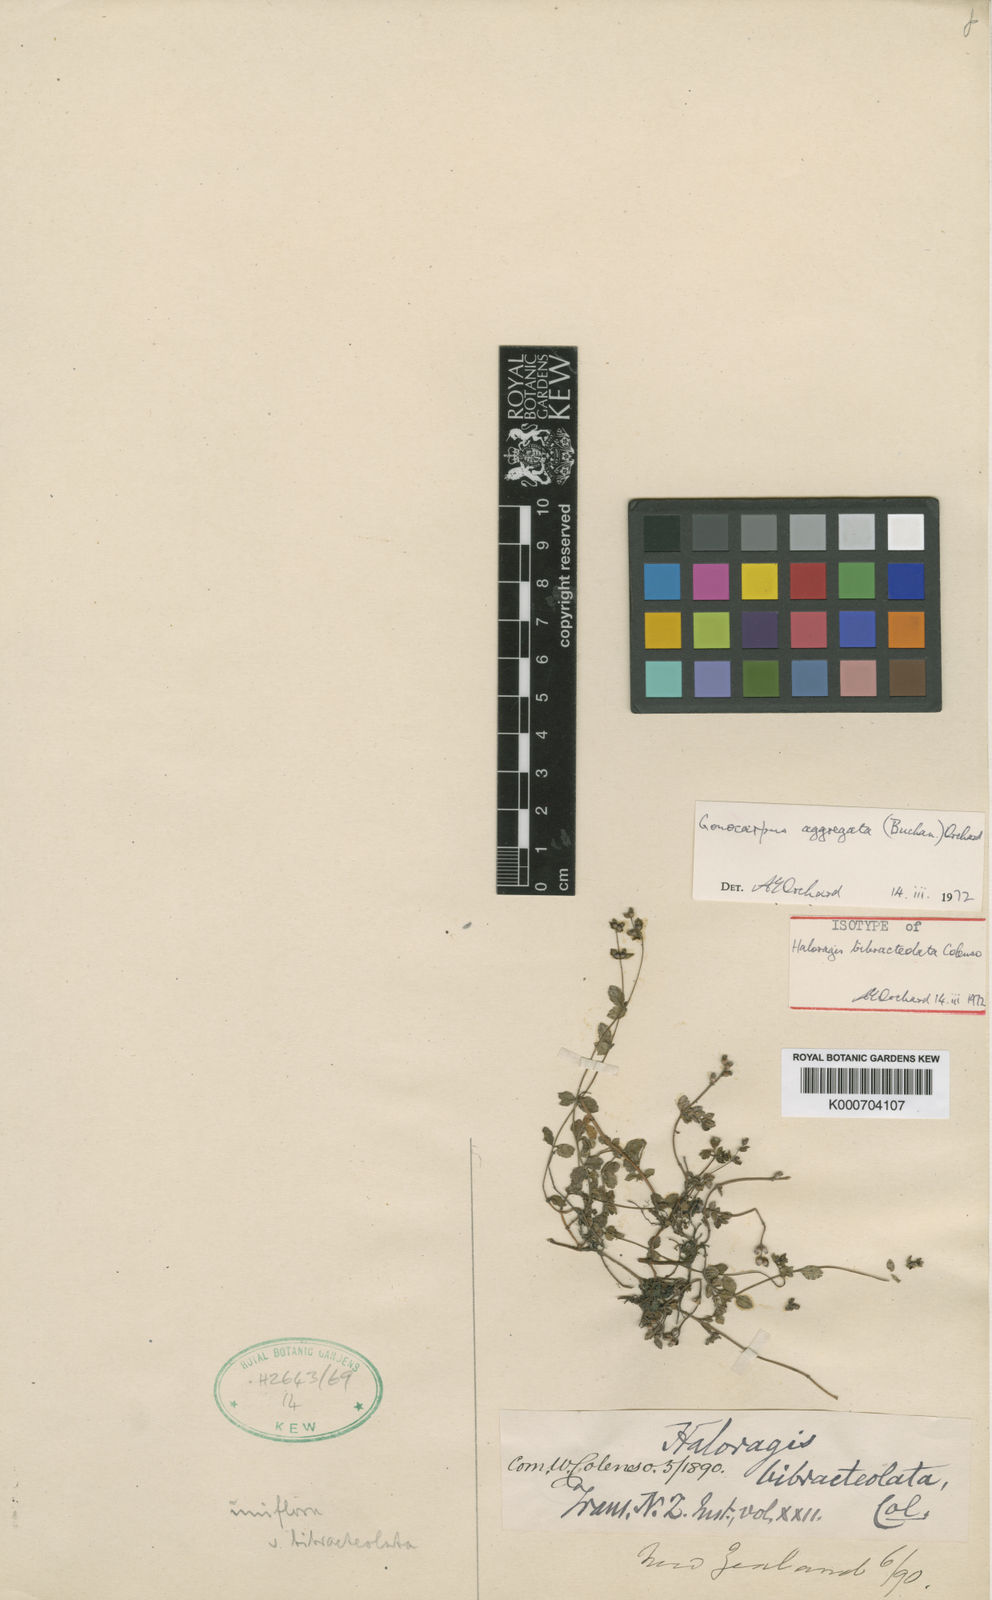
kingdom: Plantae
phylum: Tracheophyta
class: Magnoliopsida
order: Saxifragales
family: Haloragaceae
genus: Gonocarpus
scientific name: Gonocarpus aggregatus
